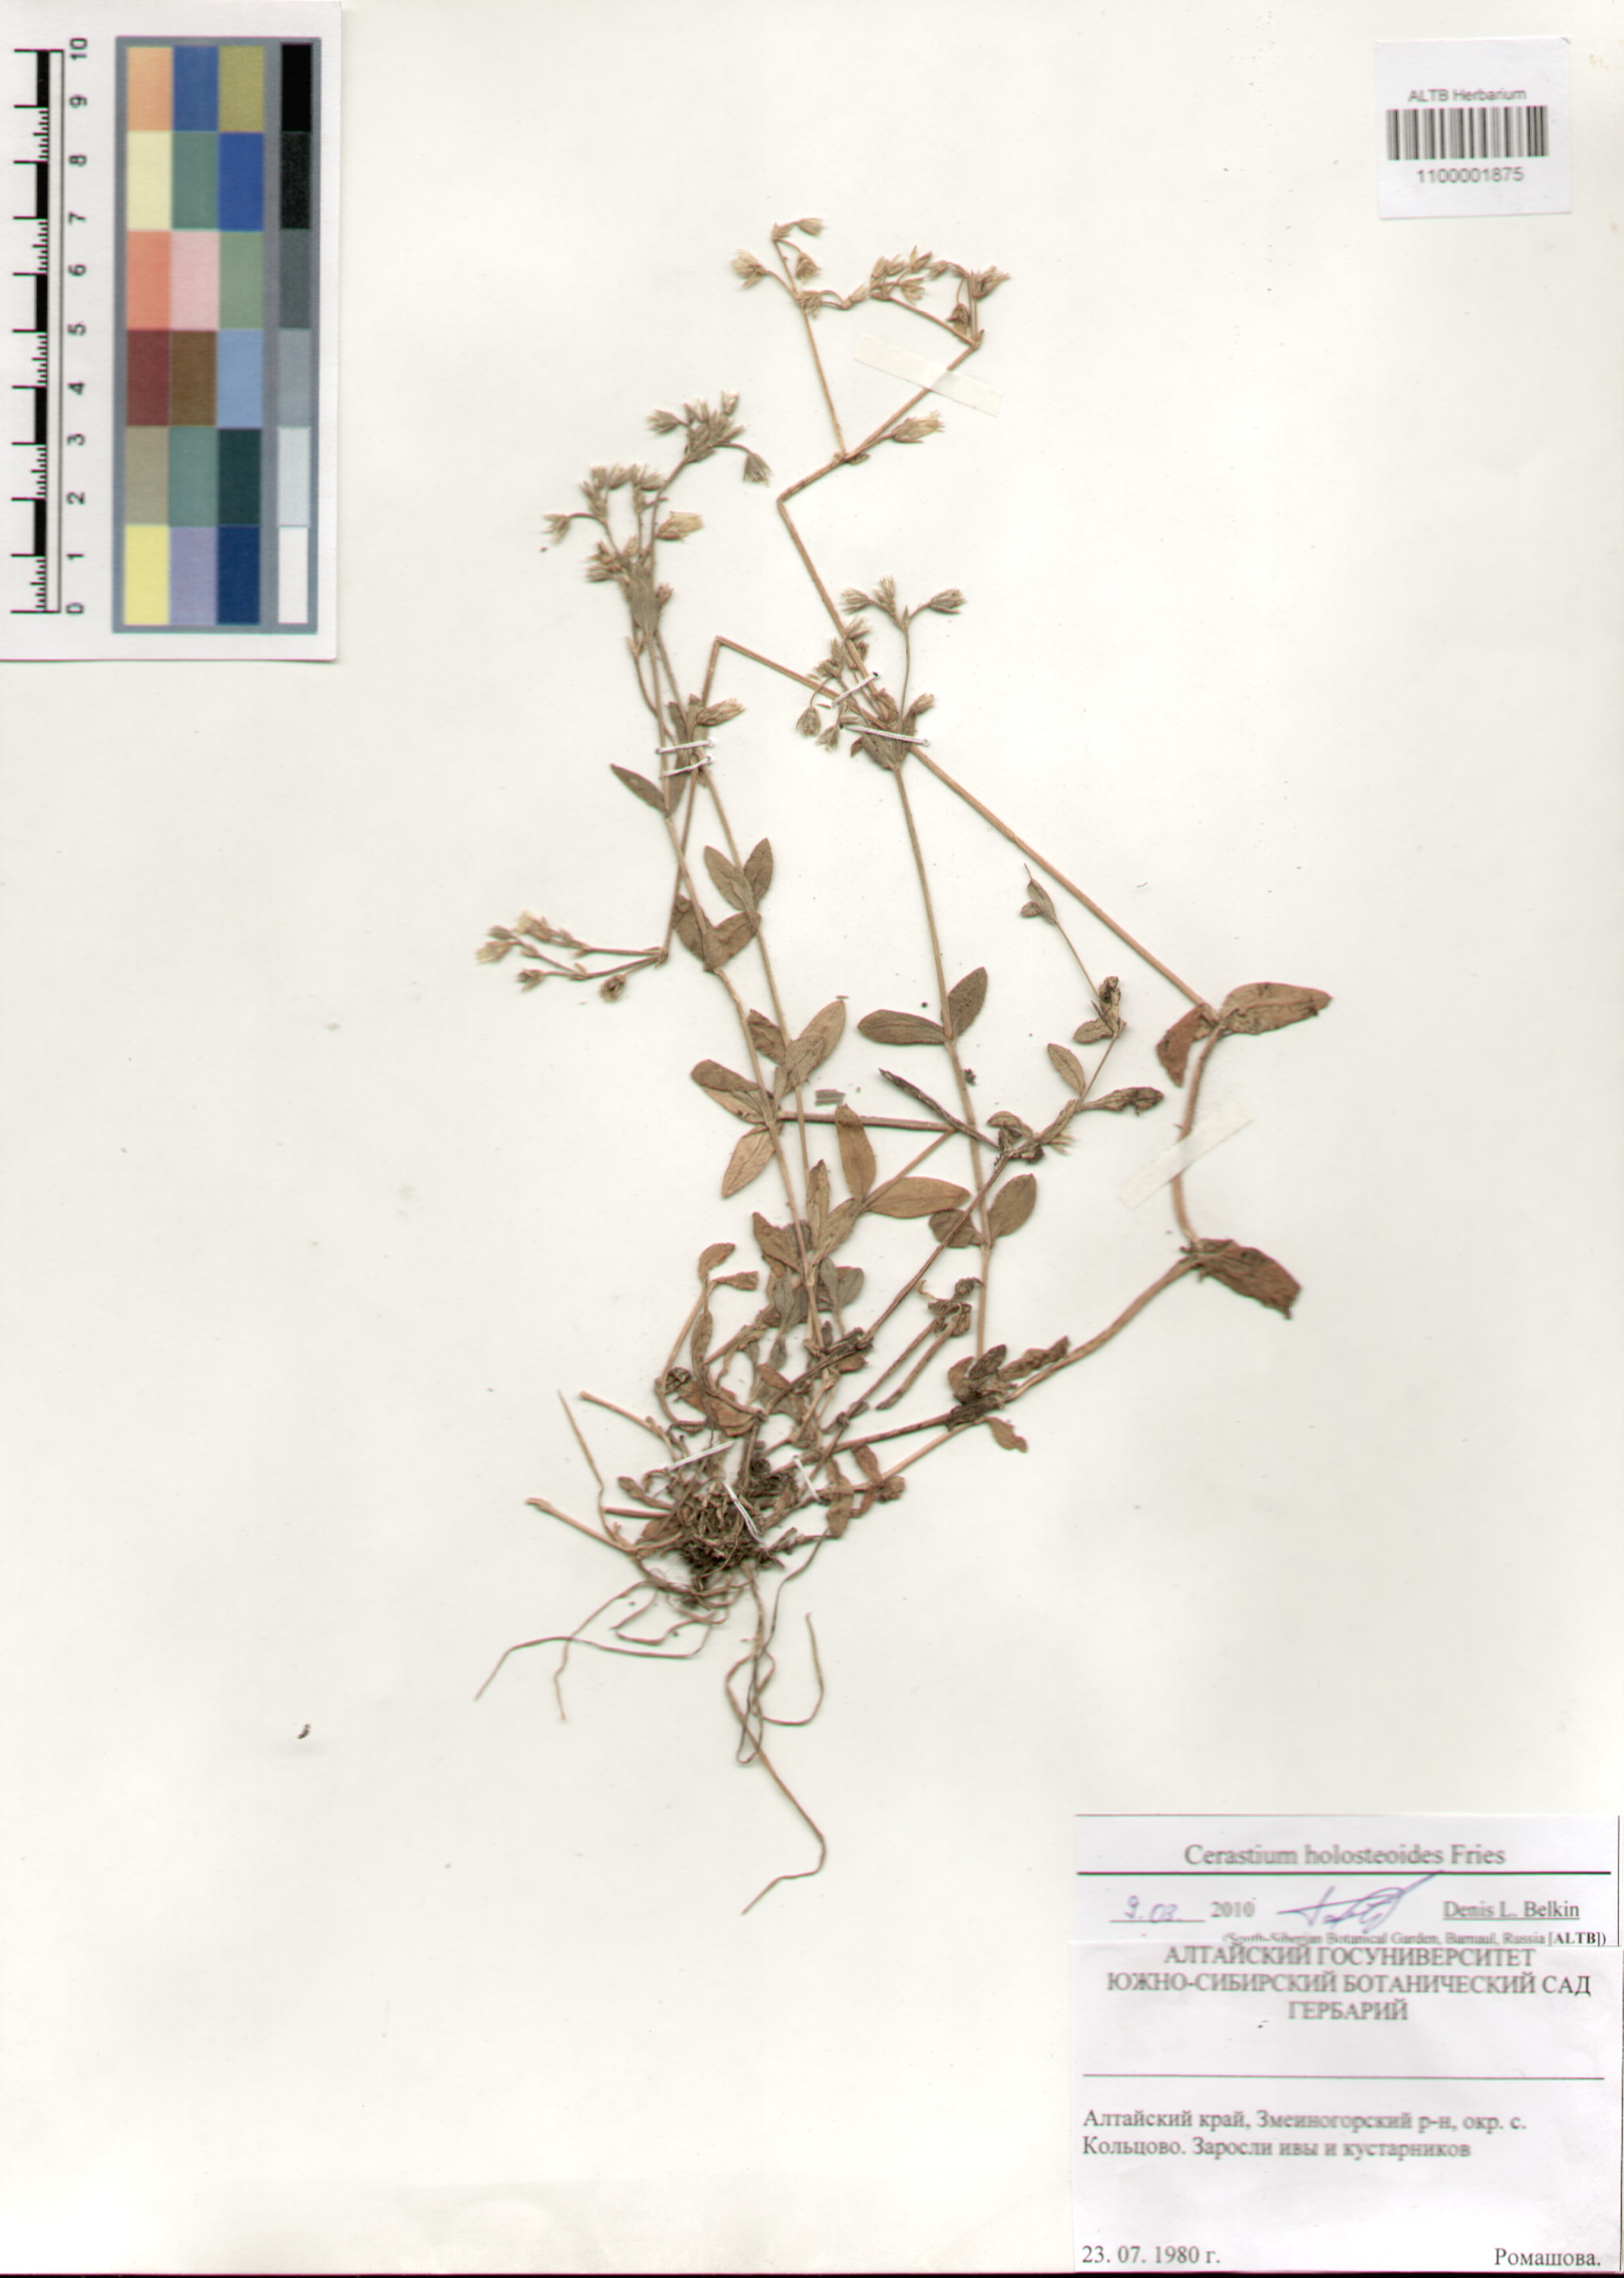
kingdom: Plantae
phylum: Tracheophyta
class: Magnoliopsida
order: Caryophyllales
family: Caryophyllaceae
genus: Cerastium
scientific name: Cerastium holosteoides
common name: Big chickweed
